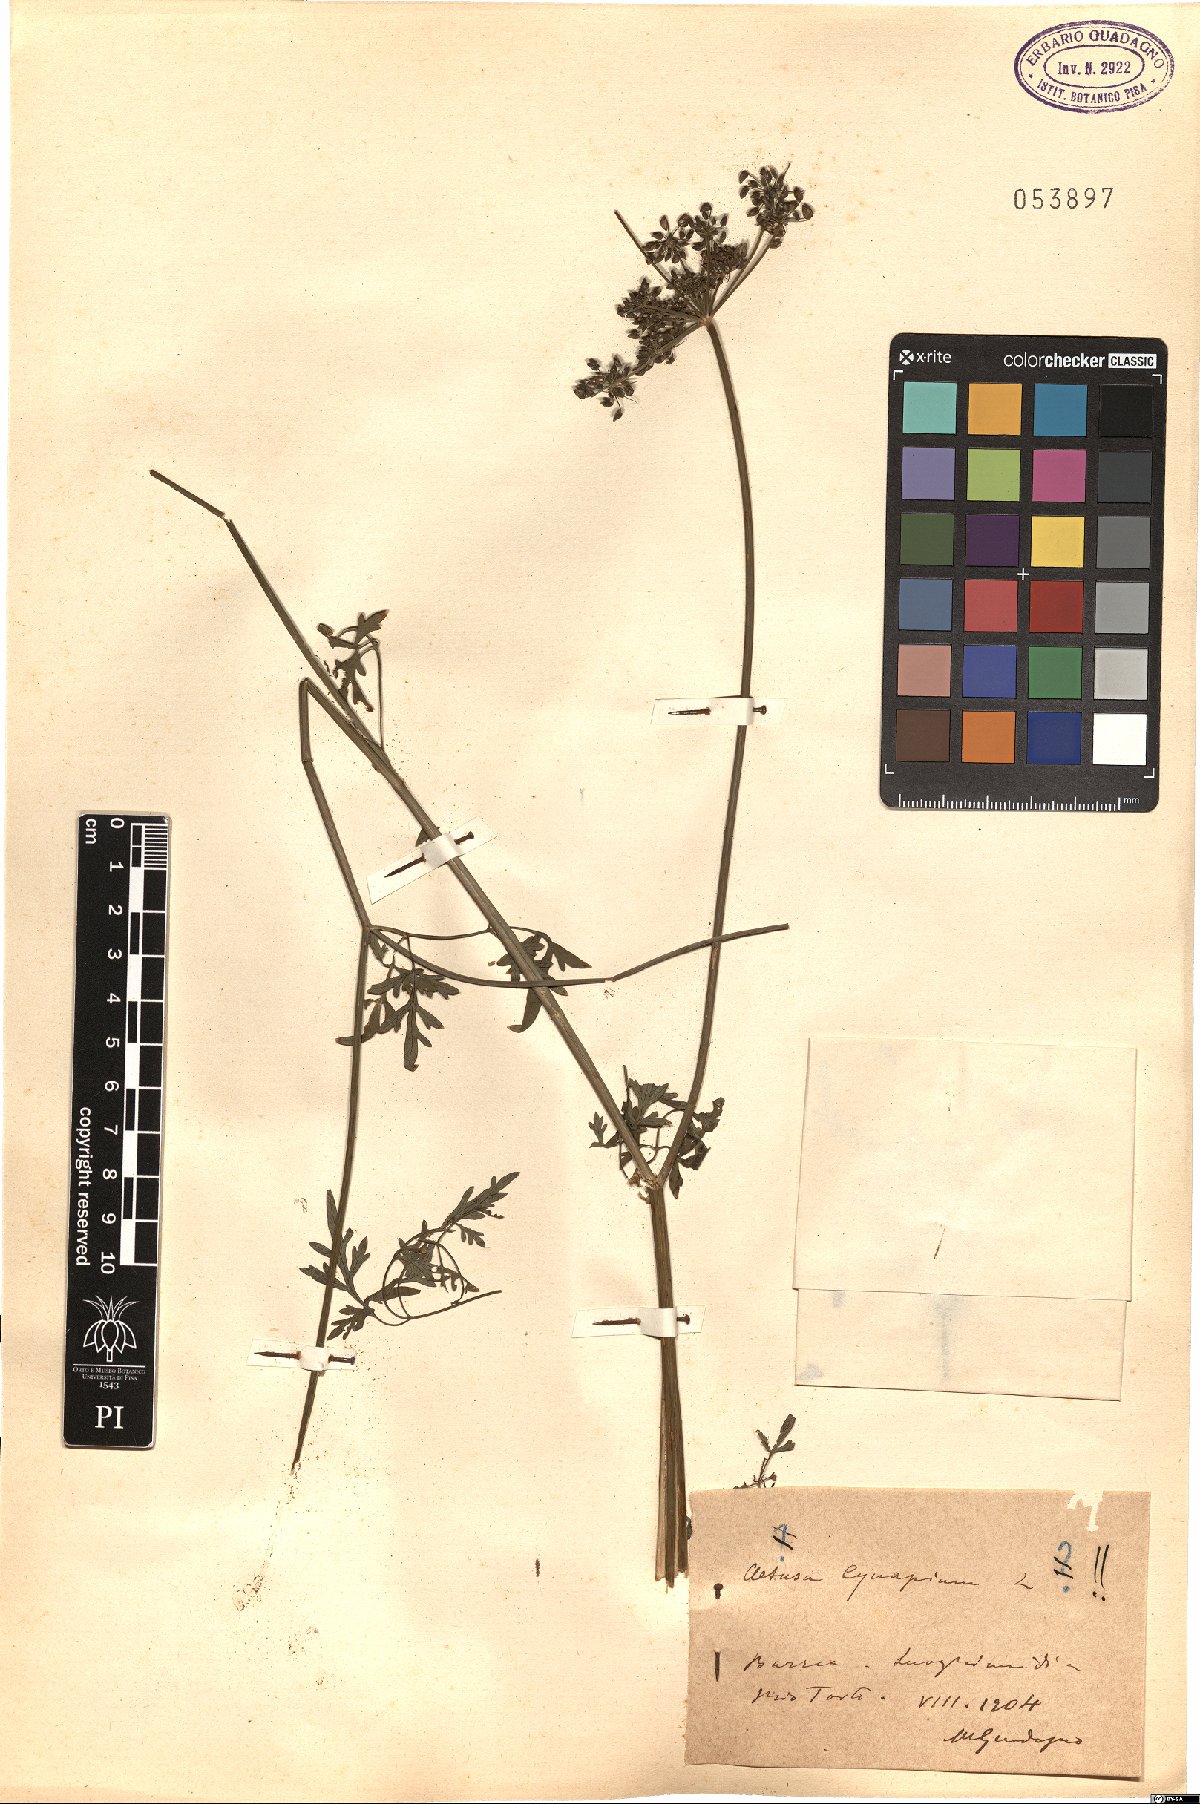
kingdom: Plantae
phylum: Tracheophyta
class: Magnoliopsida
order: Apiales
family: Apiaceae
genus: Aethusa
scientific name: Aethusa cynapium
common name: Fool's parsley
